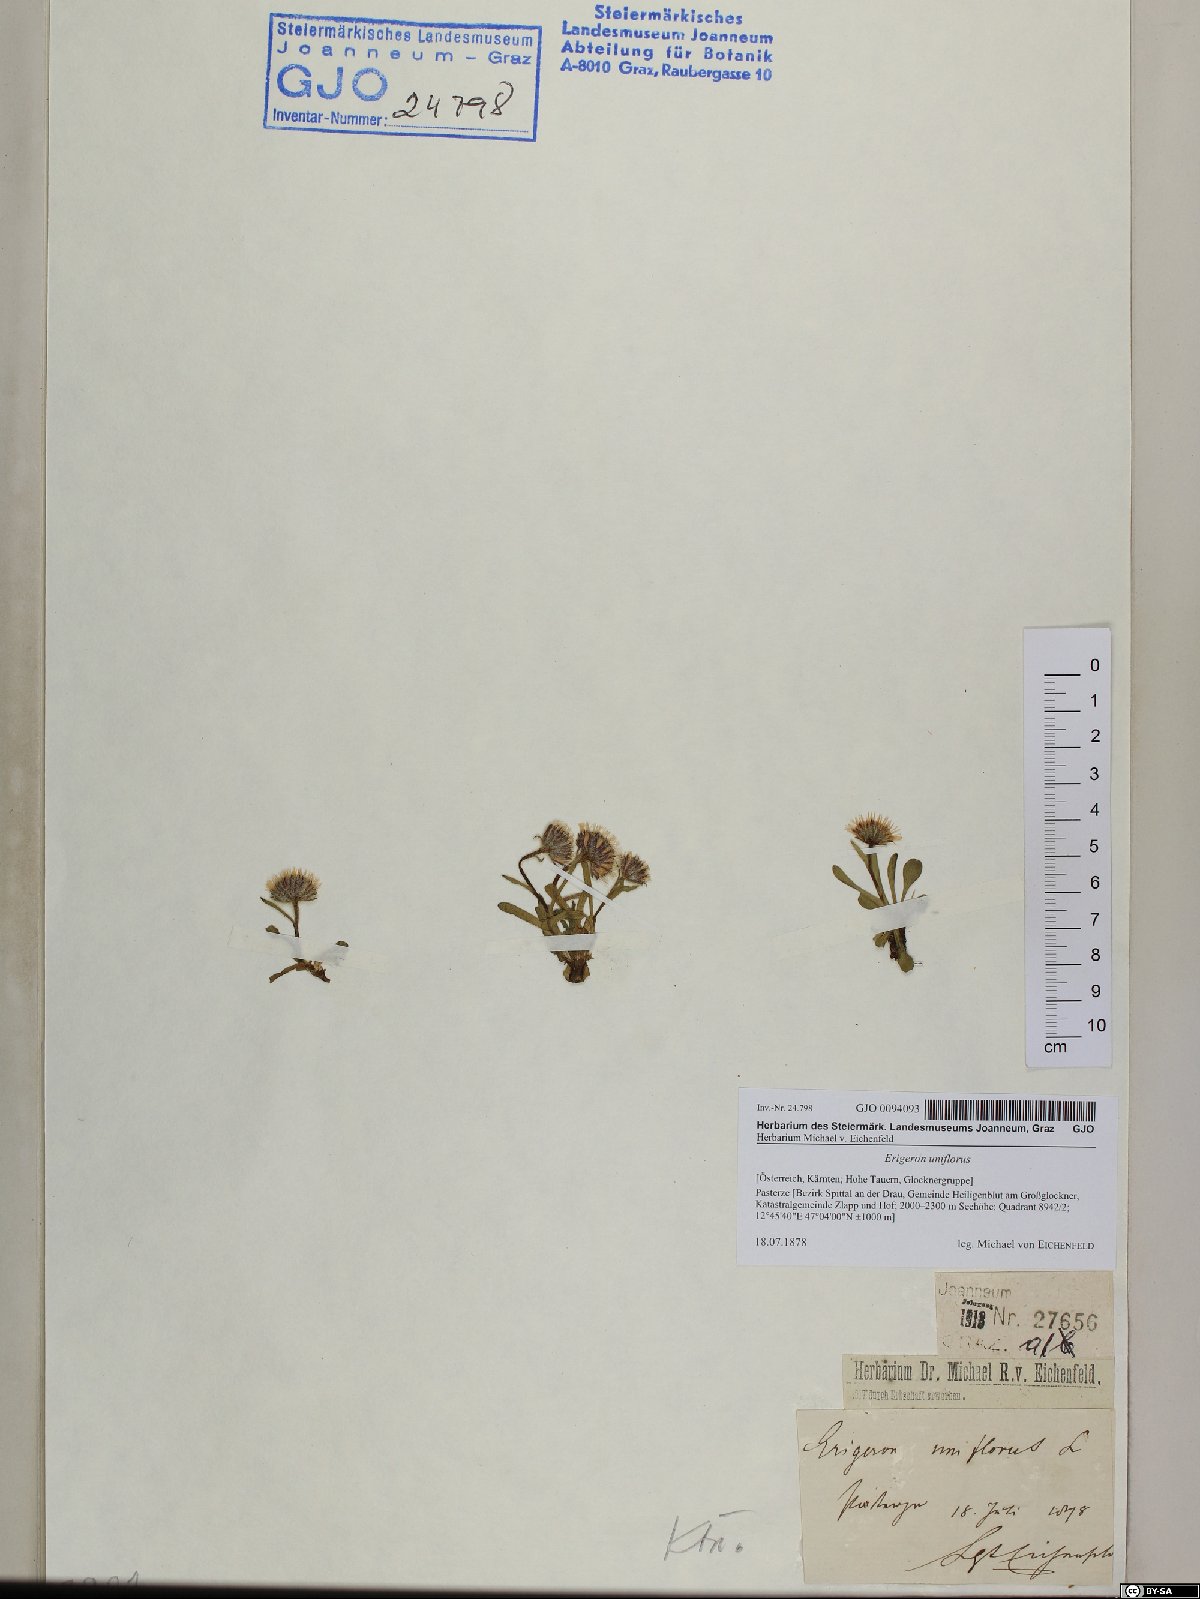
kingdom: Plantae
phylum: Tracheophyta
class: Magnoliopsida
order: Asterales
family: Asteraceae
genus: Erigeron
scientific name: Erigeron uniflorus
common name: Northern daisy
